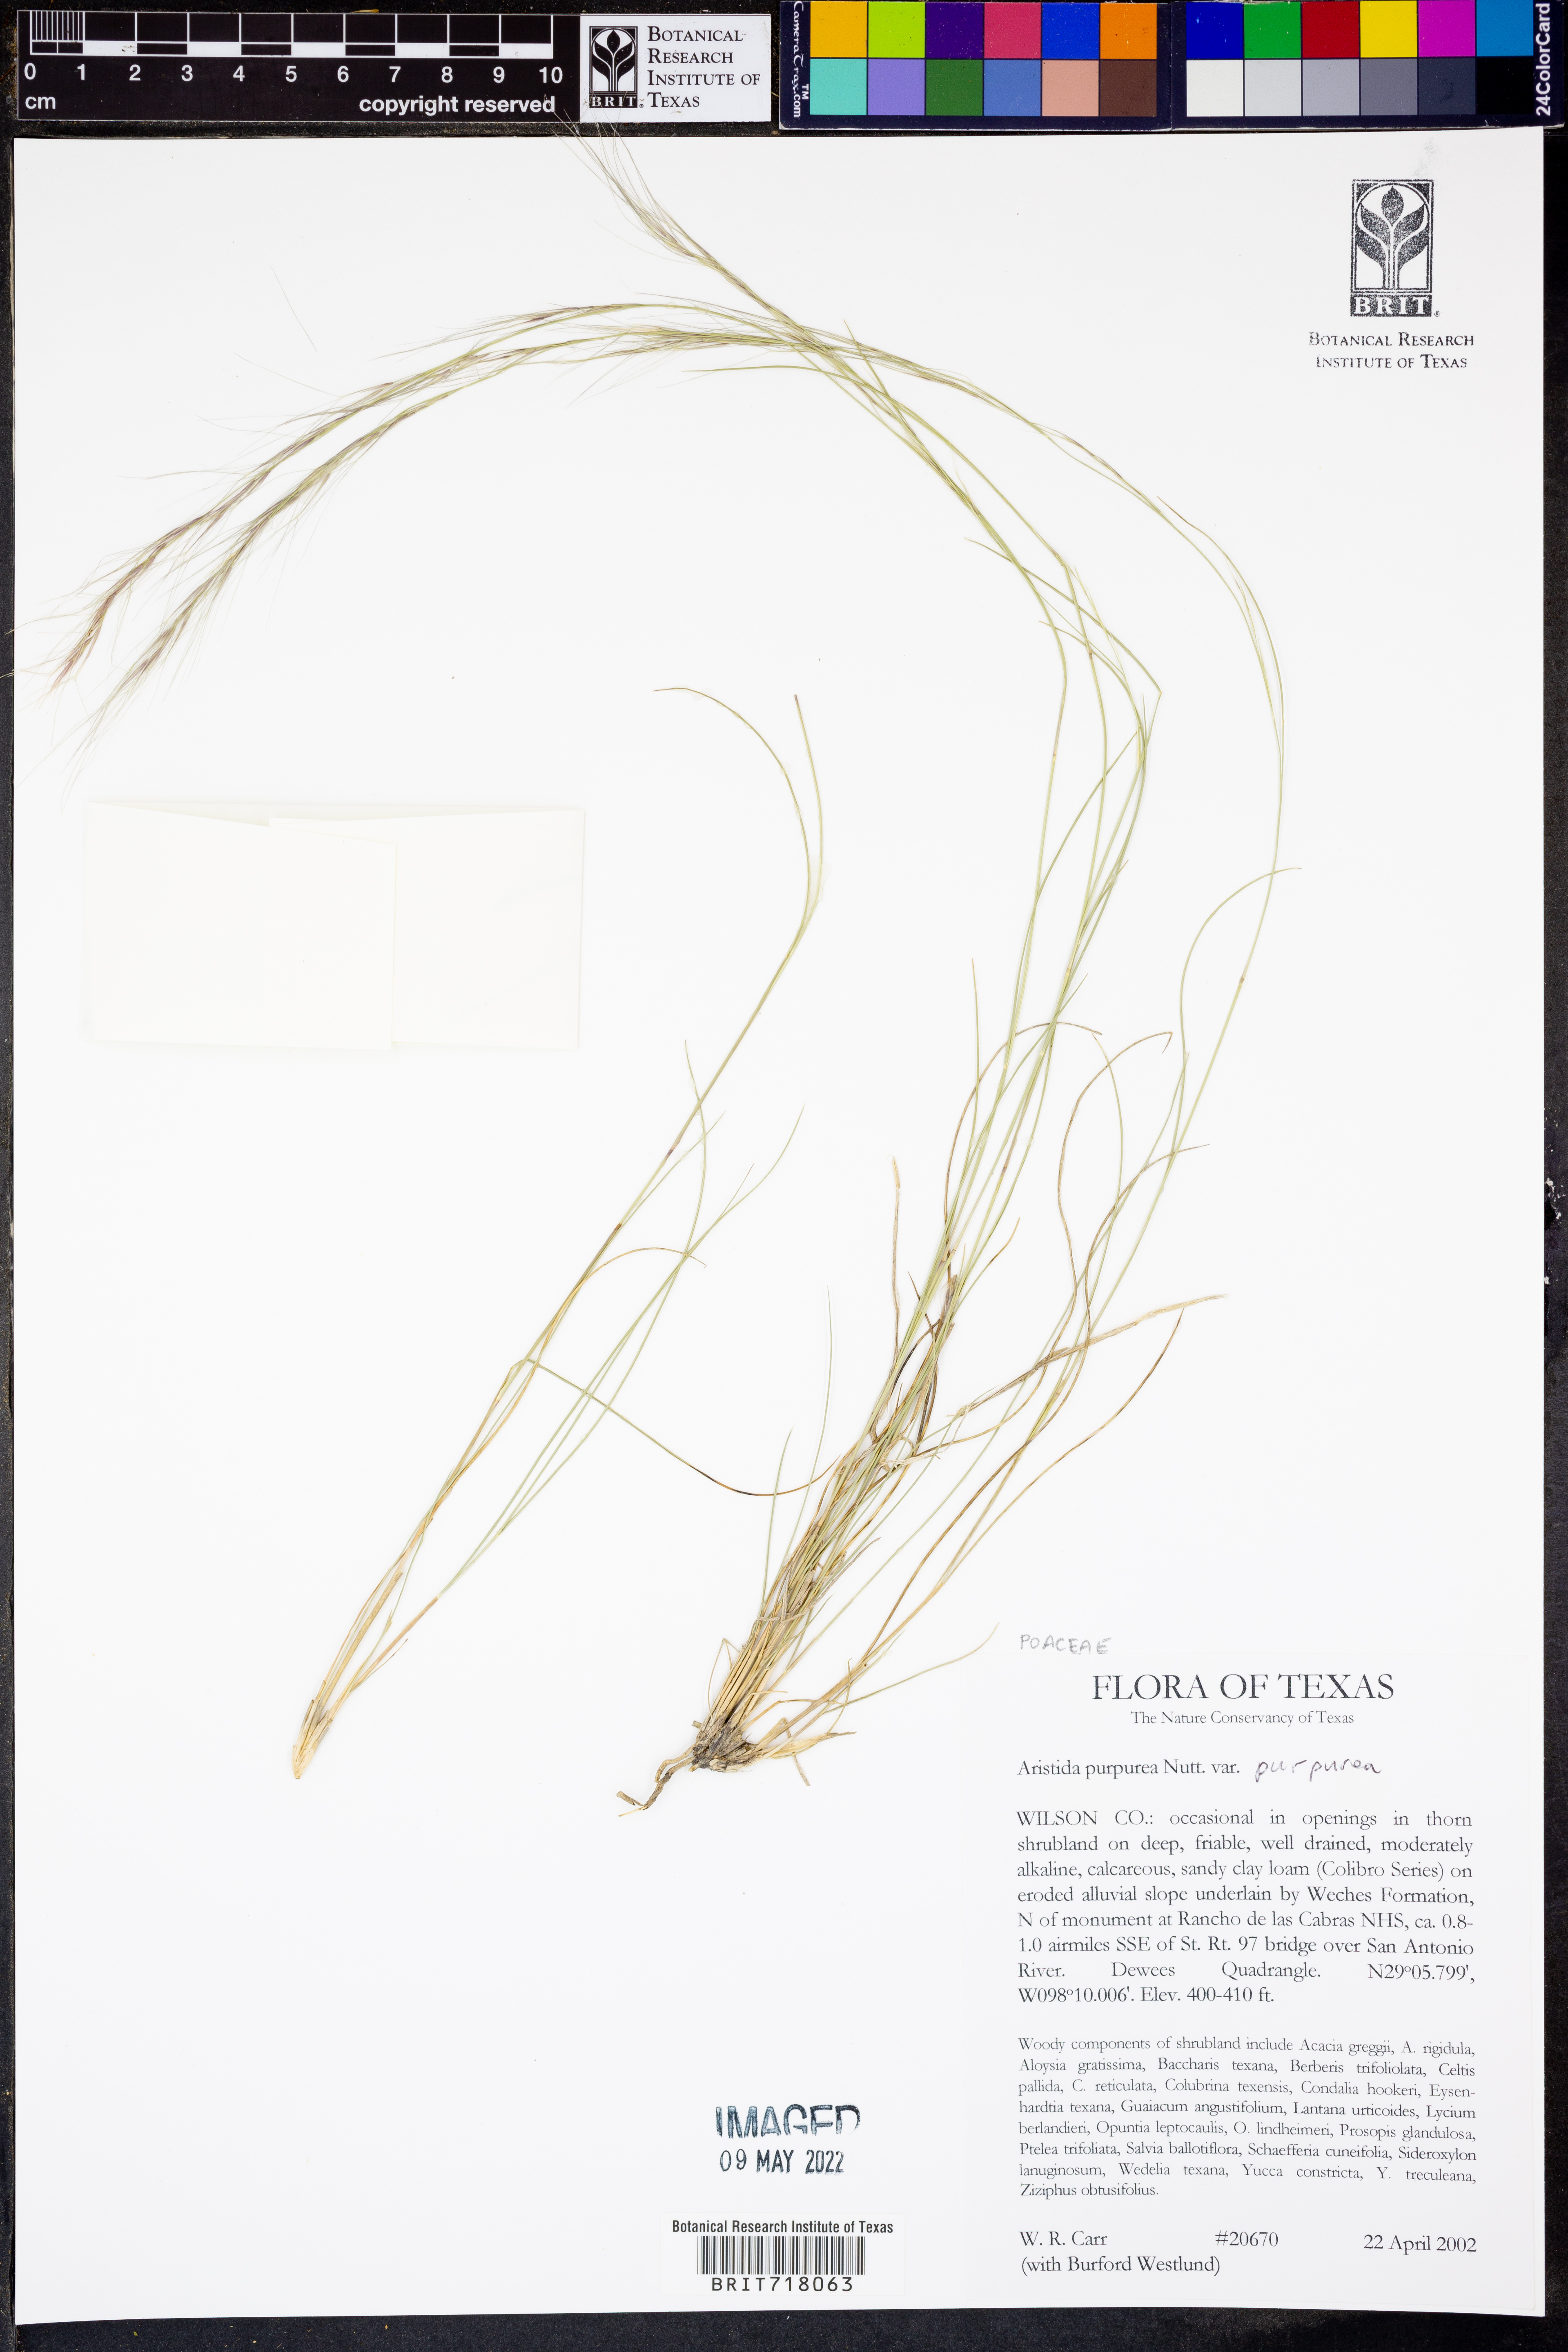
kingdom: Plantae
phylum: Tracheophyta
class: Liliopsida
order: Poales
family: Poaceae
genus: Aristida
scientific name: Aristida purpurea
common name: Purple threeawn
